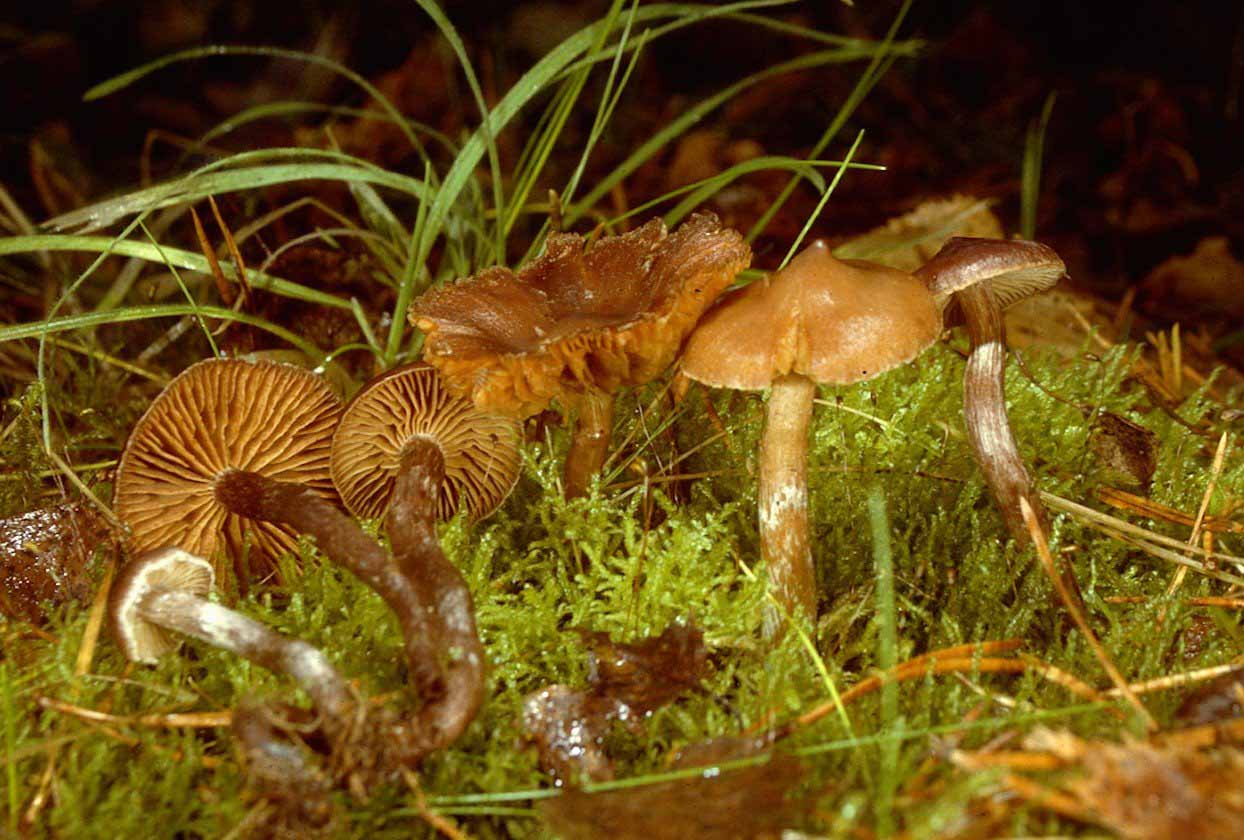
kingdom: Fungi
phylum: Basidiomycota
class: Agaricomycetes
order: Agaricales
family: Cortinariaceae
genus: Cortinarius
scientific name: Cortinarius fuscoalbus
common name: lysbladet slørhat
